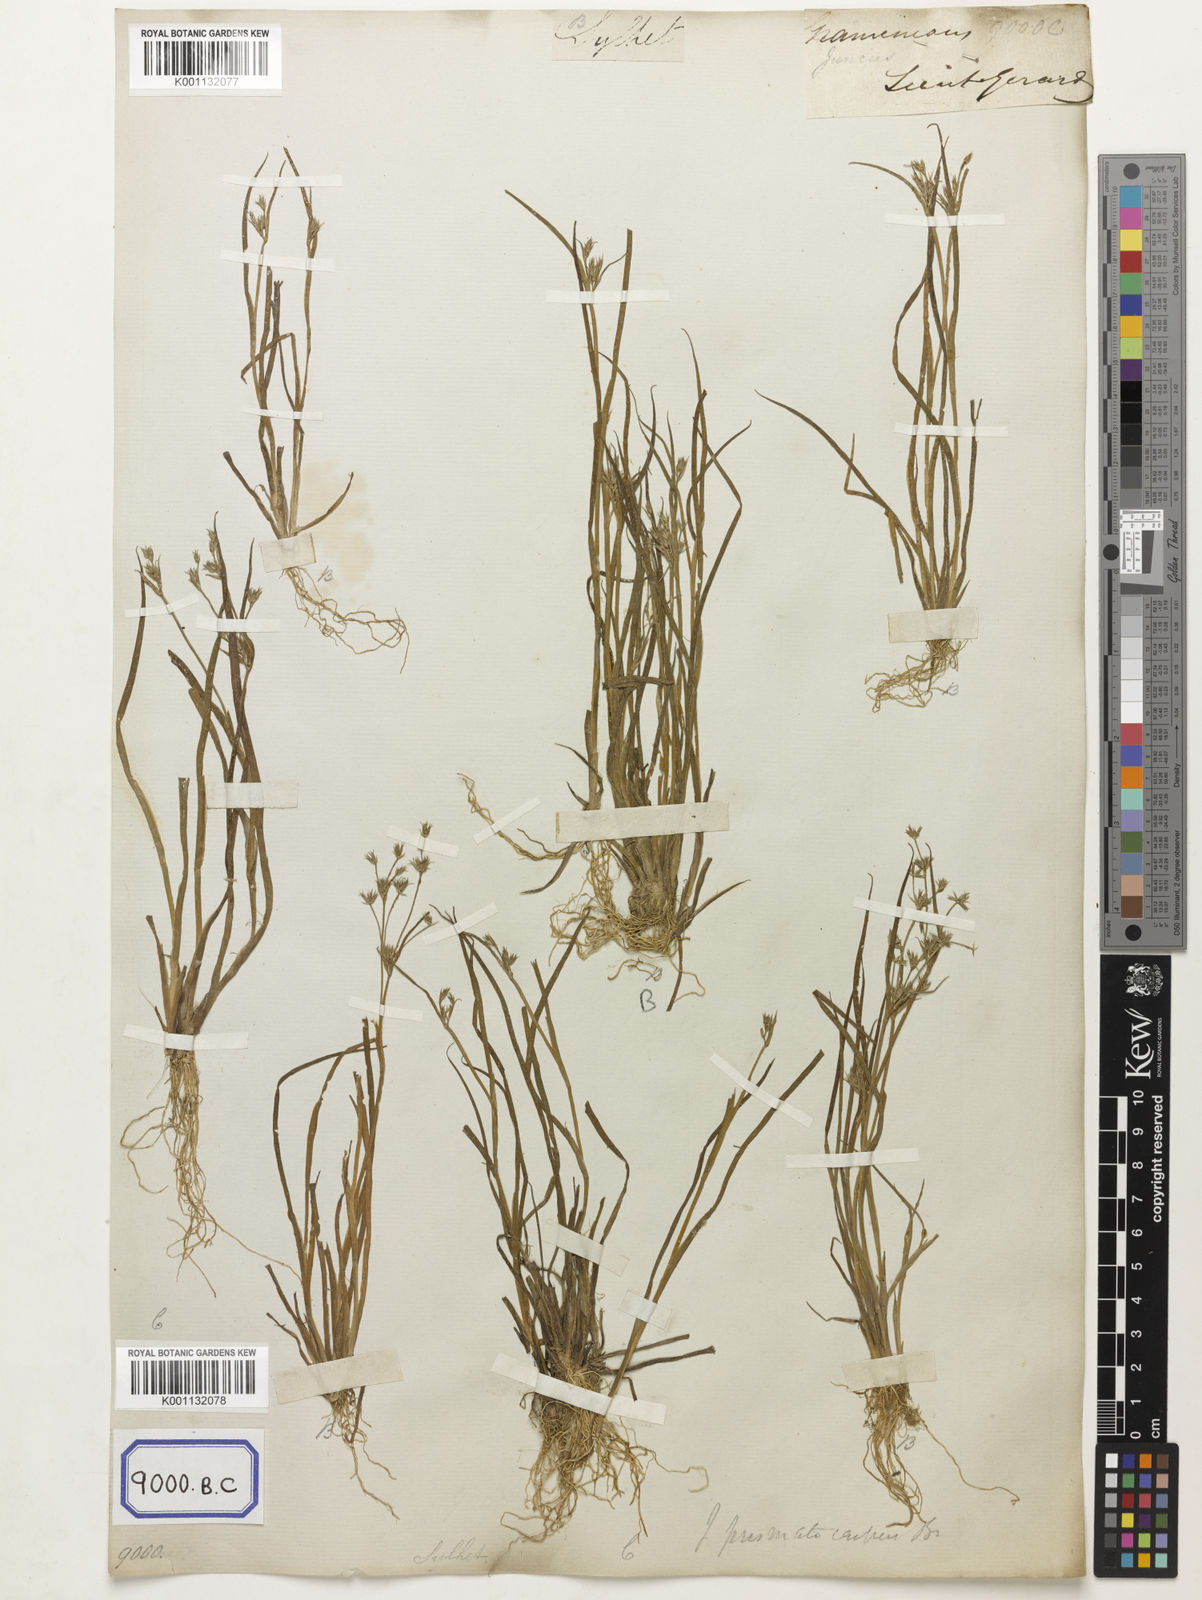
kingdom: Plantae
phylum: Tracheophyta
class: Liliopsida
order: Poales
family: Juncaceae
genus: Juncus
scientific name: Juncus
